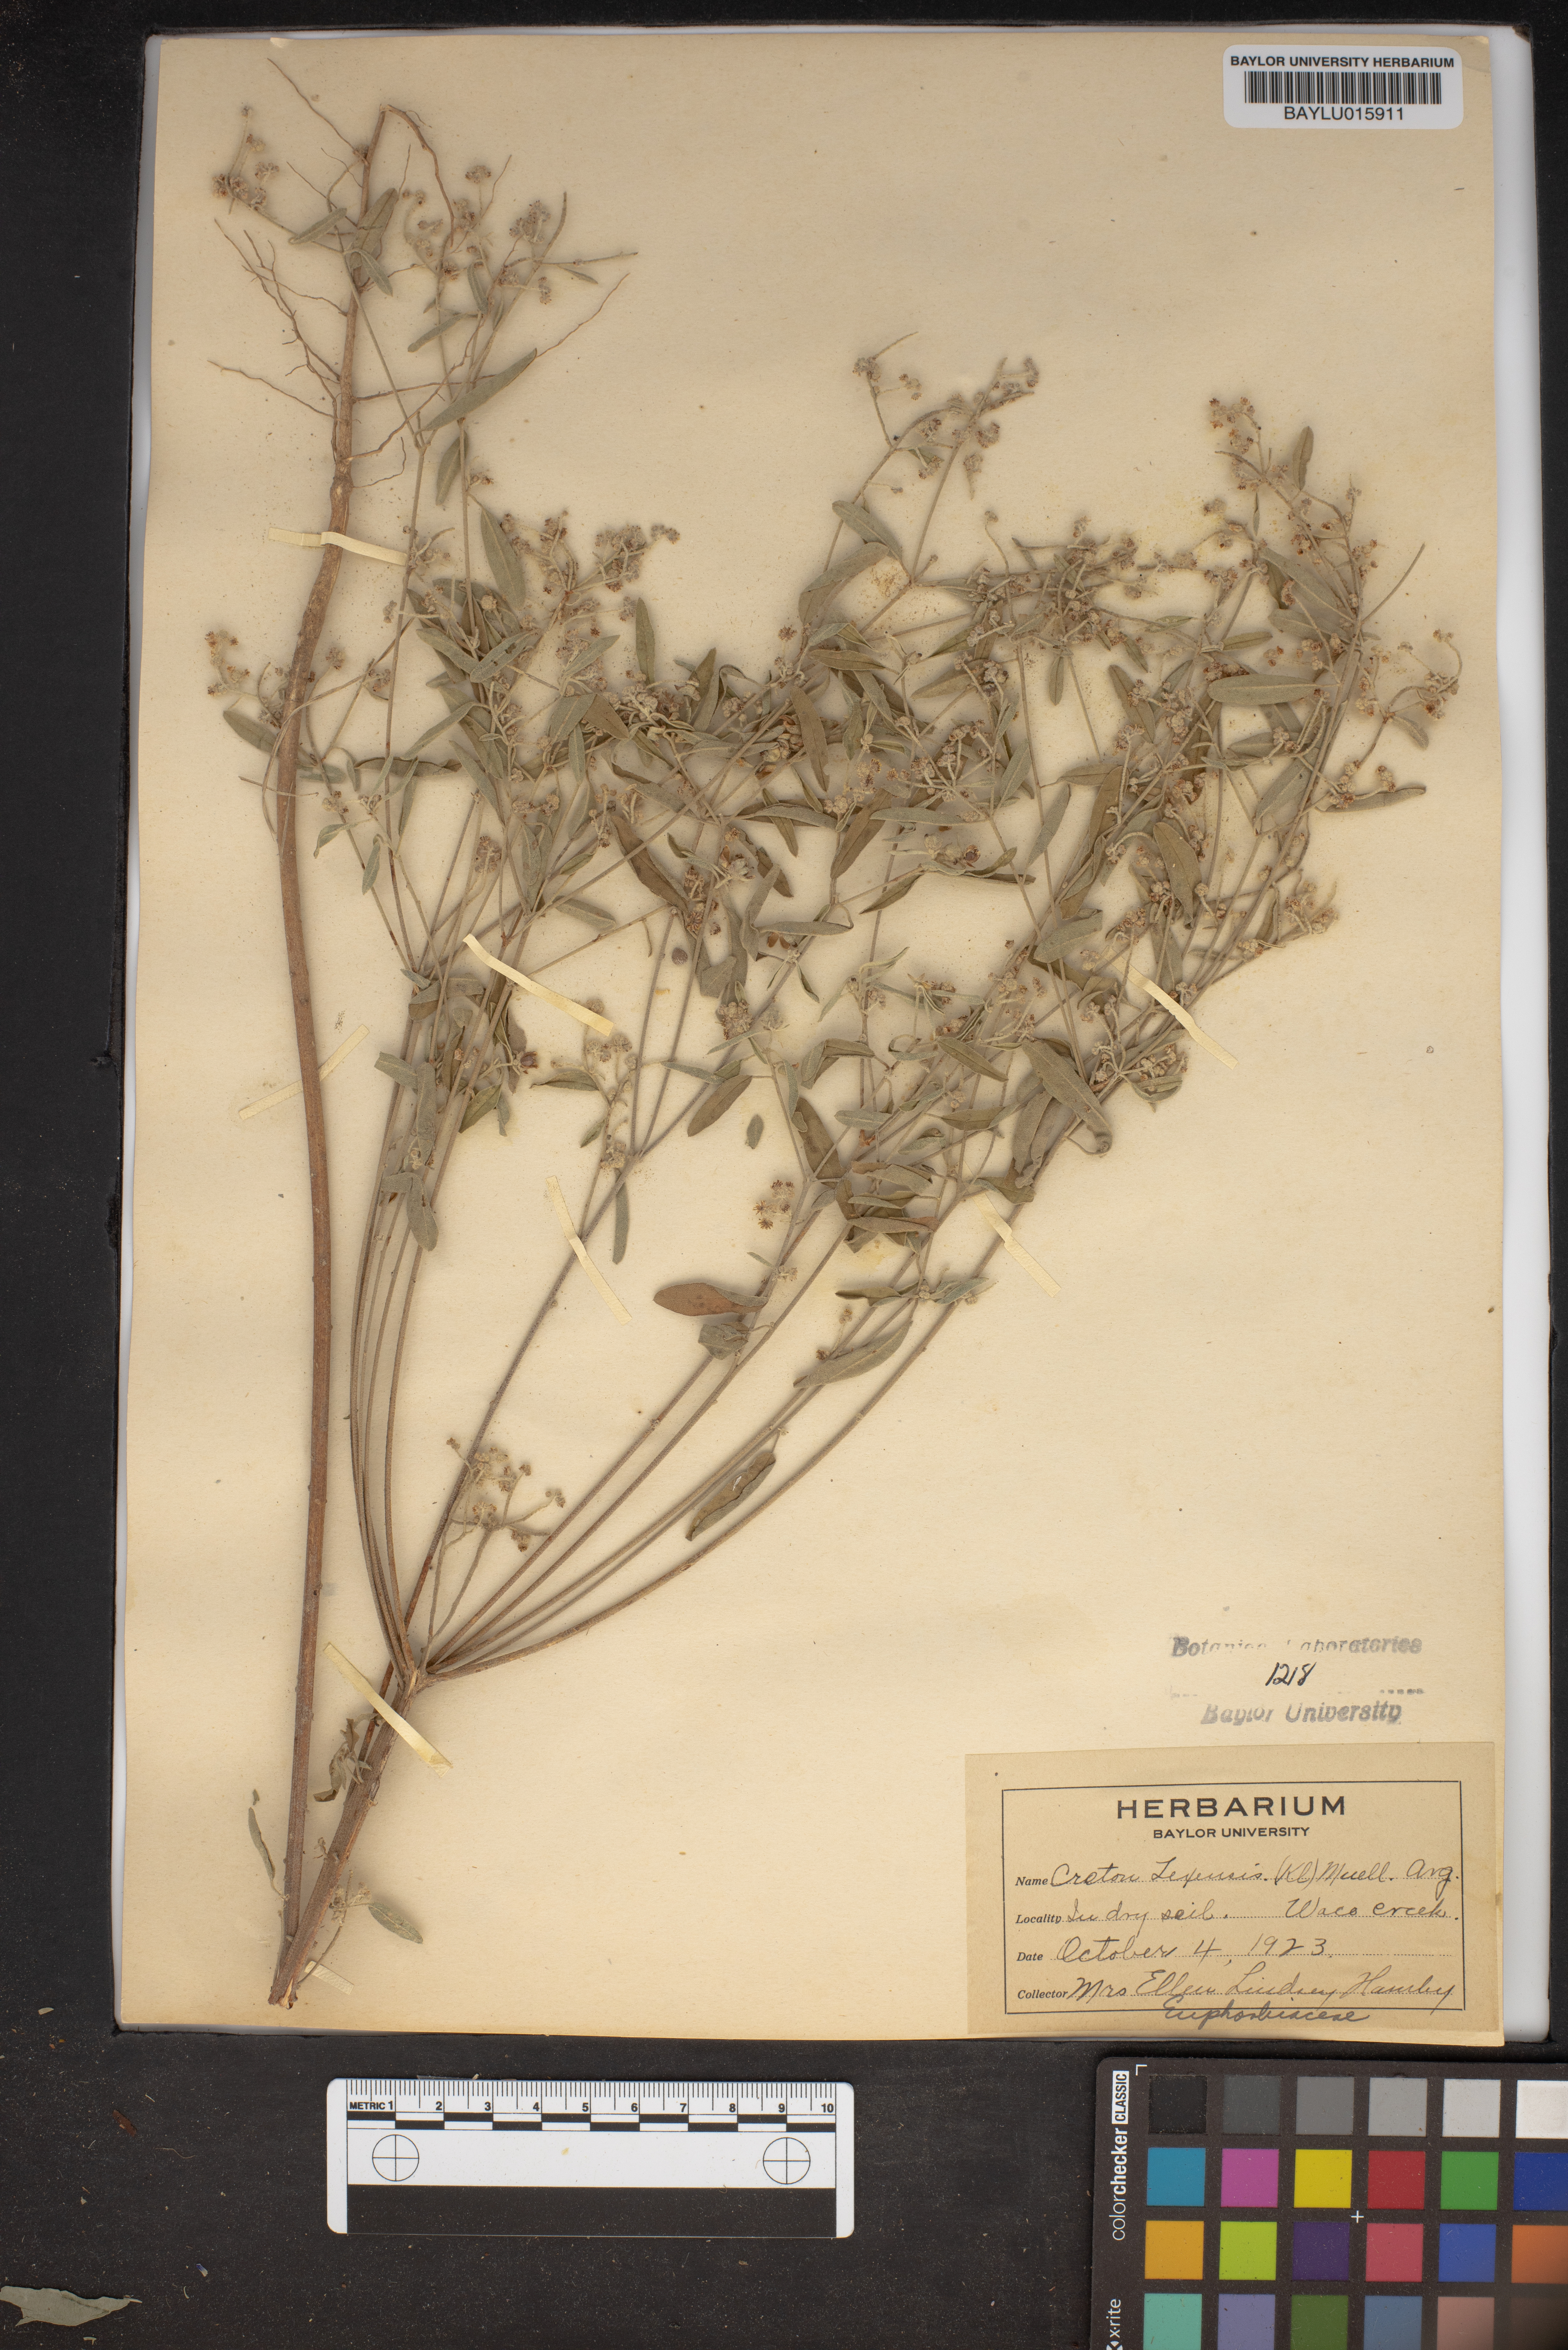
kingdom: Plantae
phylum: Tracheophyta
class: Magnoliopsida
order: Malpighiales
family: Euphorbiaceae
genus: Croton
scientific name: Croton texensis
